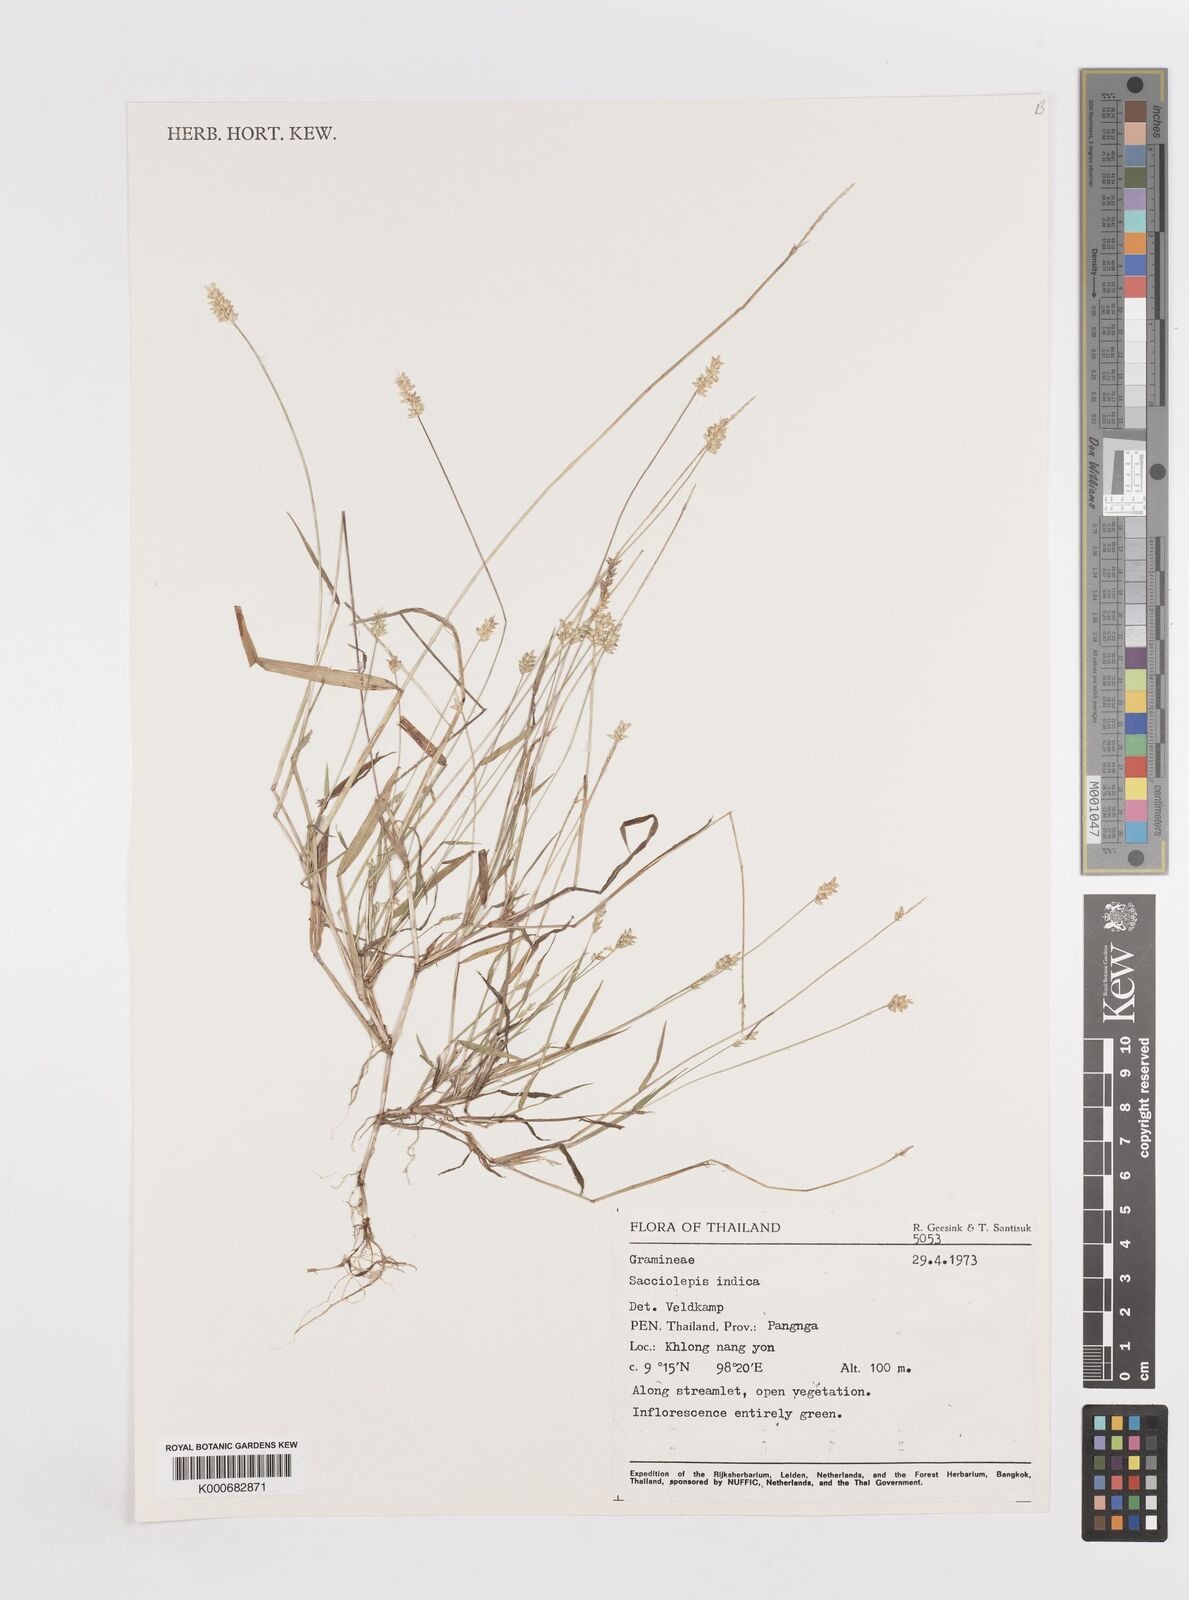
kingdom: Plantae
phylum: Tracheophyta
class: Liliopsida
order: Poales
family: Poaceae
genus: Sacciolepis
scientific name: Sacciolepis indica
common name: Glenwoodgrass
